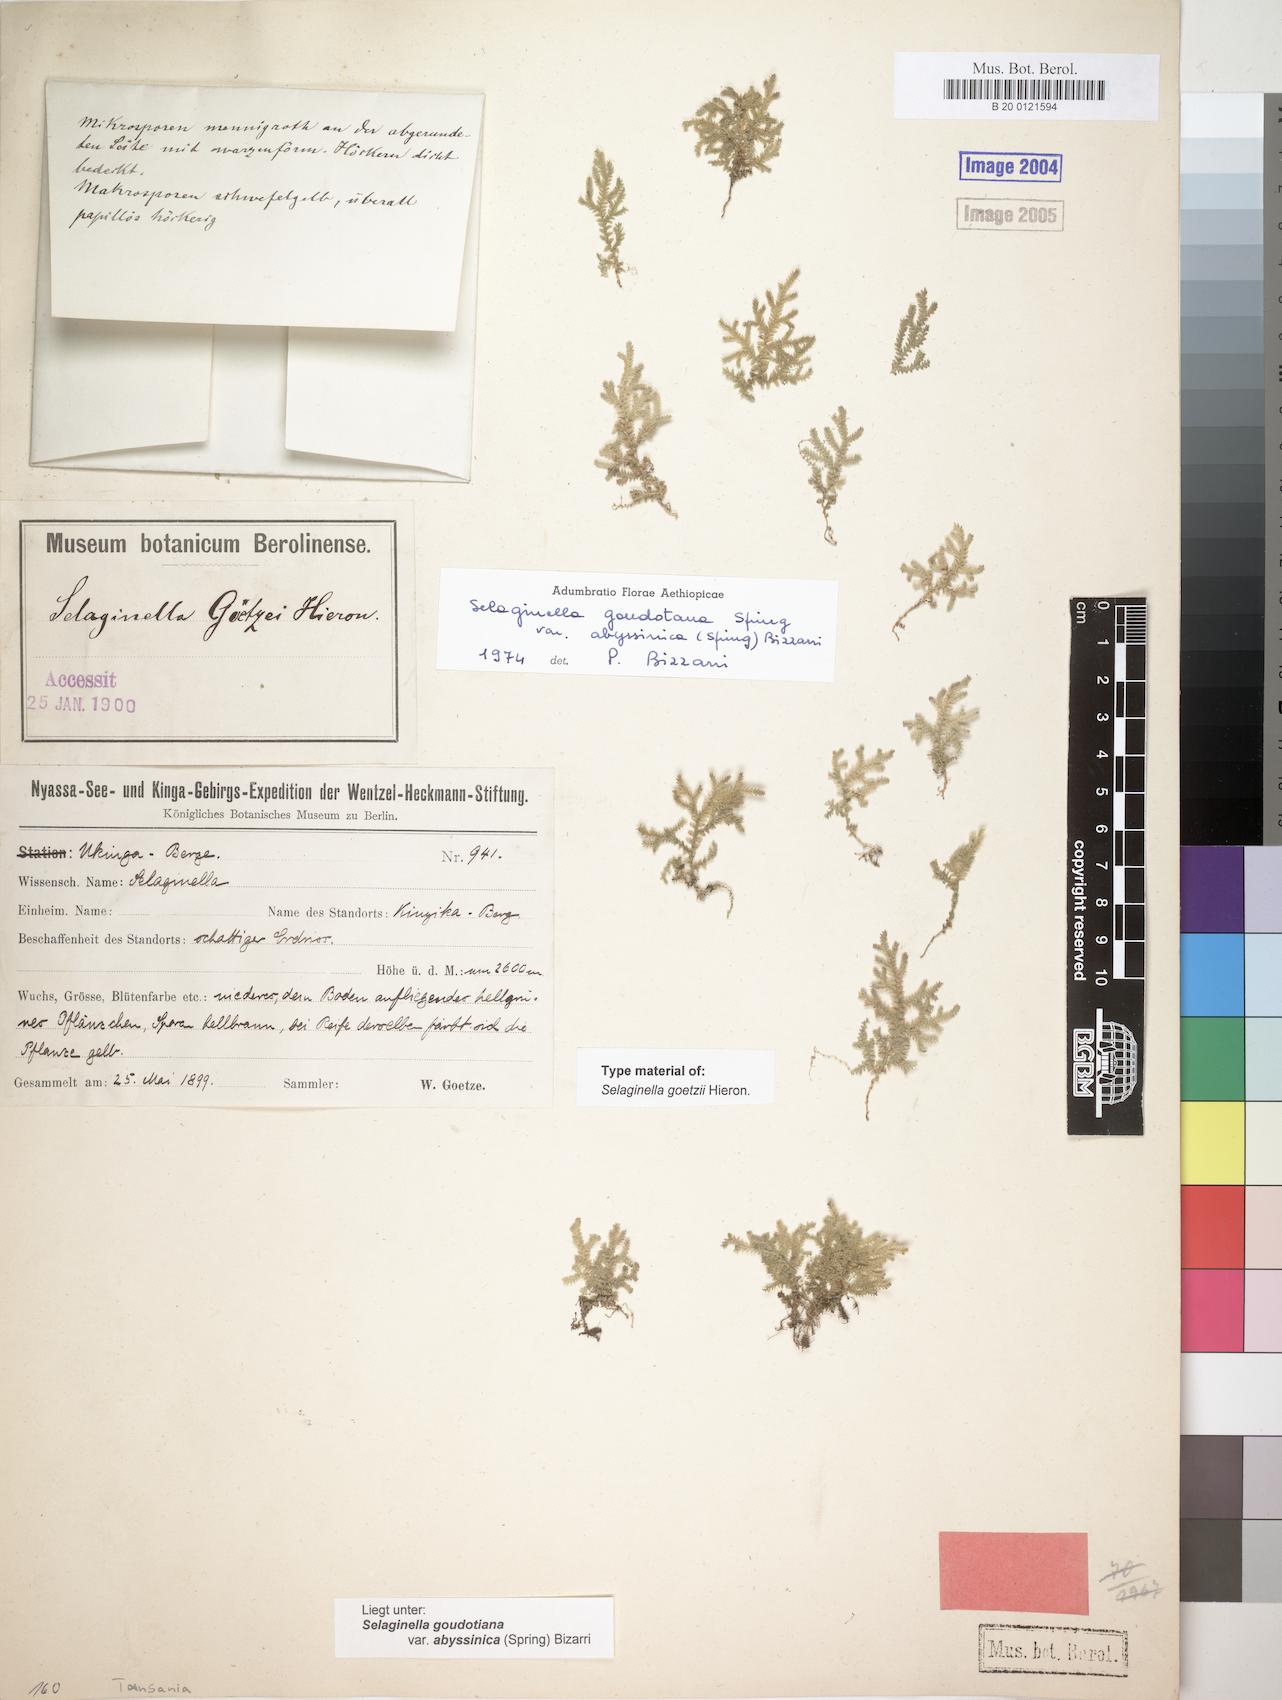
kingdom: Plantae
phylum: Tracheophyta
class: Lycopodiopsida
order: Selaginellales
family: Selaginellaceae
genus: Selaginella
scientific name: Selaginella goudotiana
